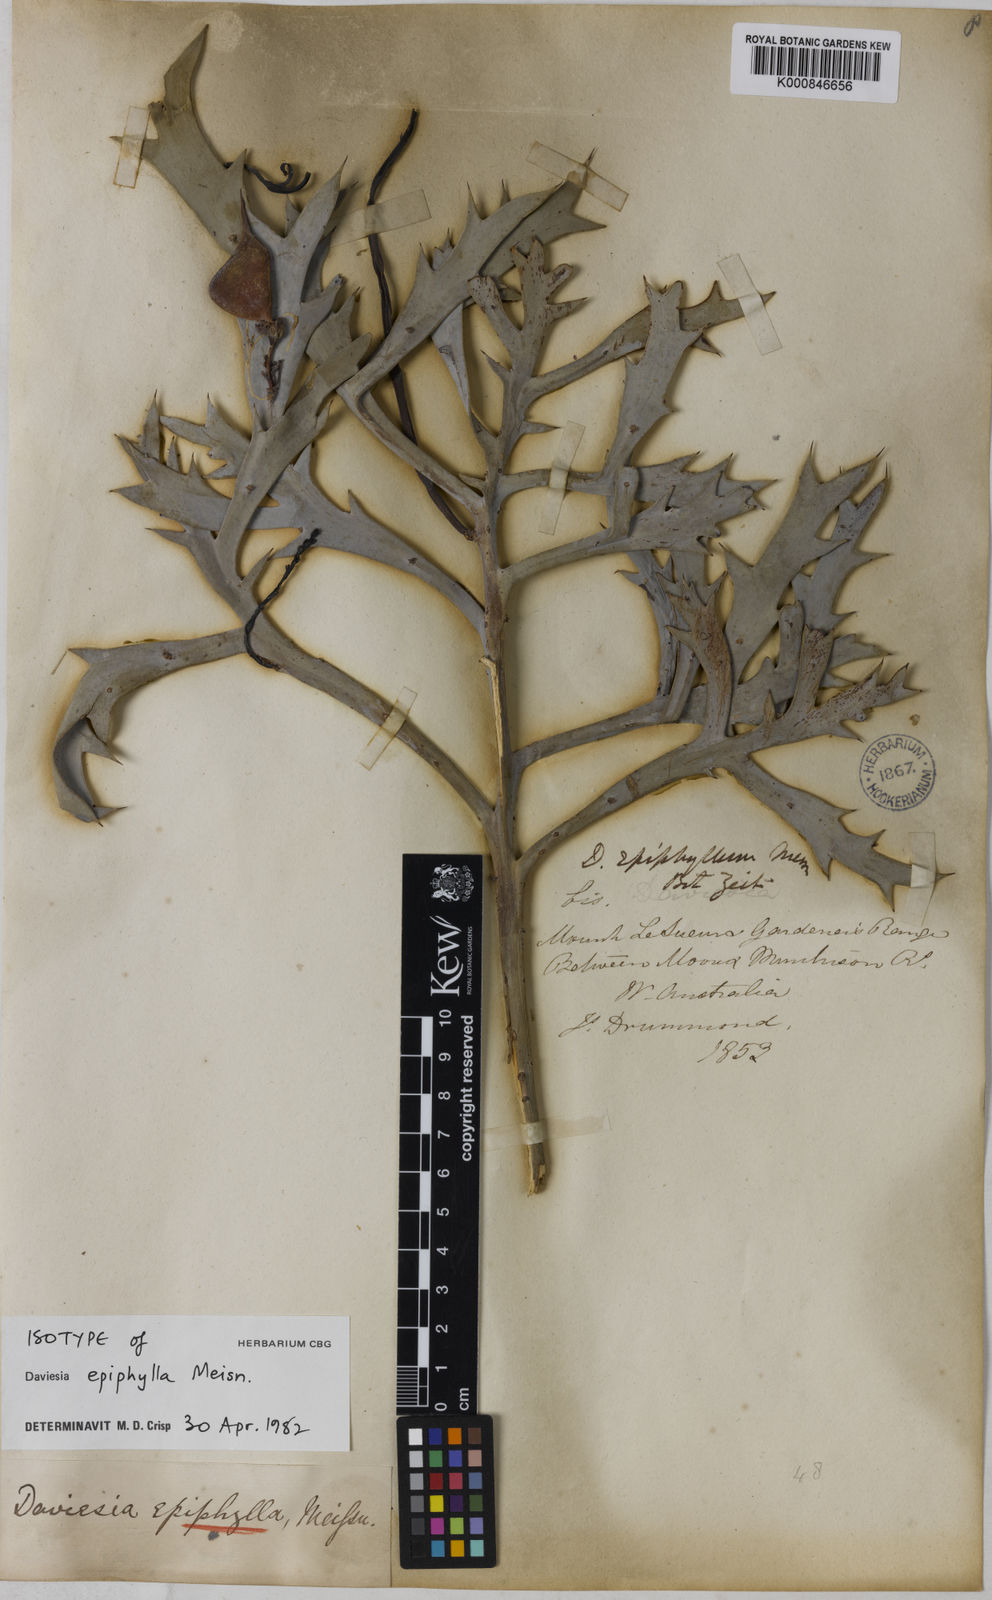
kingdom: Plantae
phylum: Tracheophyta
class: Magnoliopsida
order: Fabales
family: Fabaceae
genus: Daviesia
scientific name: Daviesia epiphyllum
